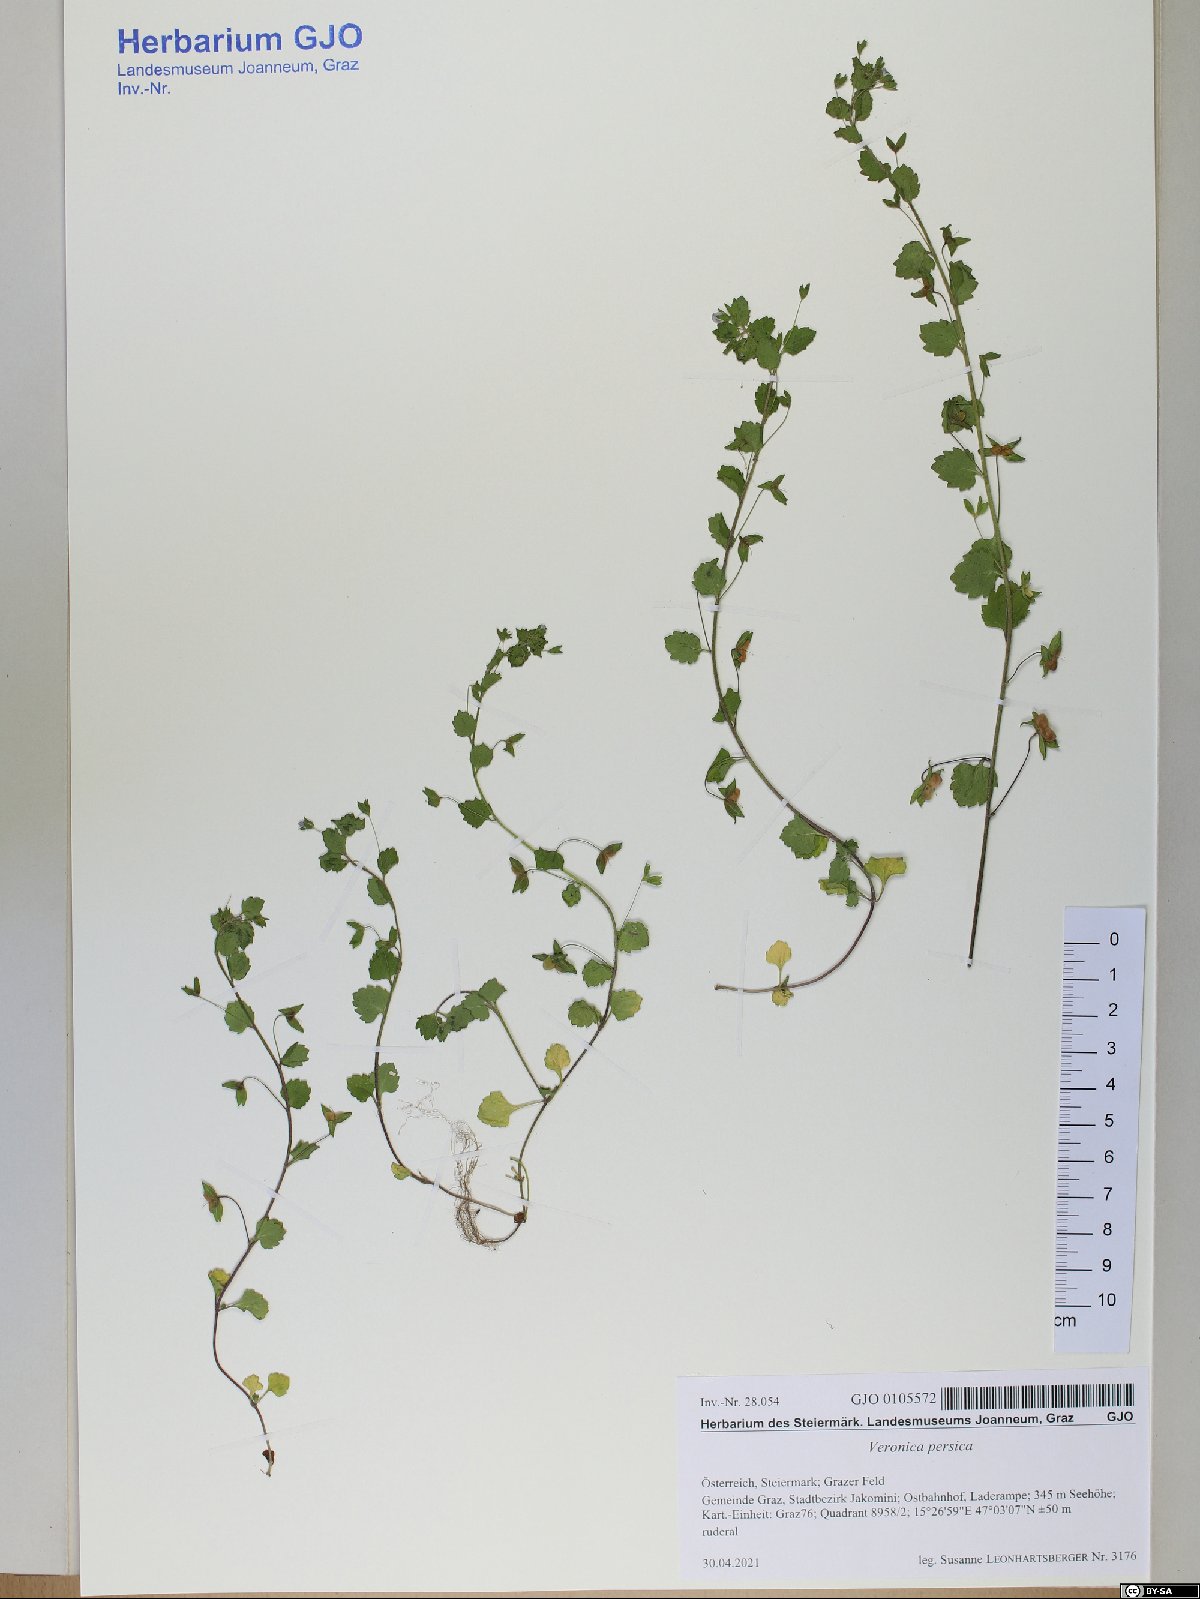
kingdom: Plantae
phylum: Tracheophyta
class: Magnoliopsida
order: Lamiales
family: Plantaginaceae
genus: Veronica
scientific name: Veronica persica
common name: Common field-speedwell
